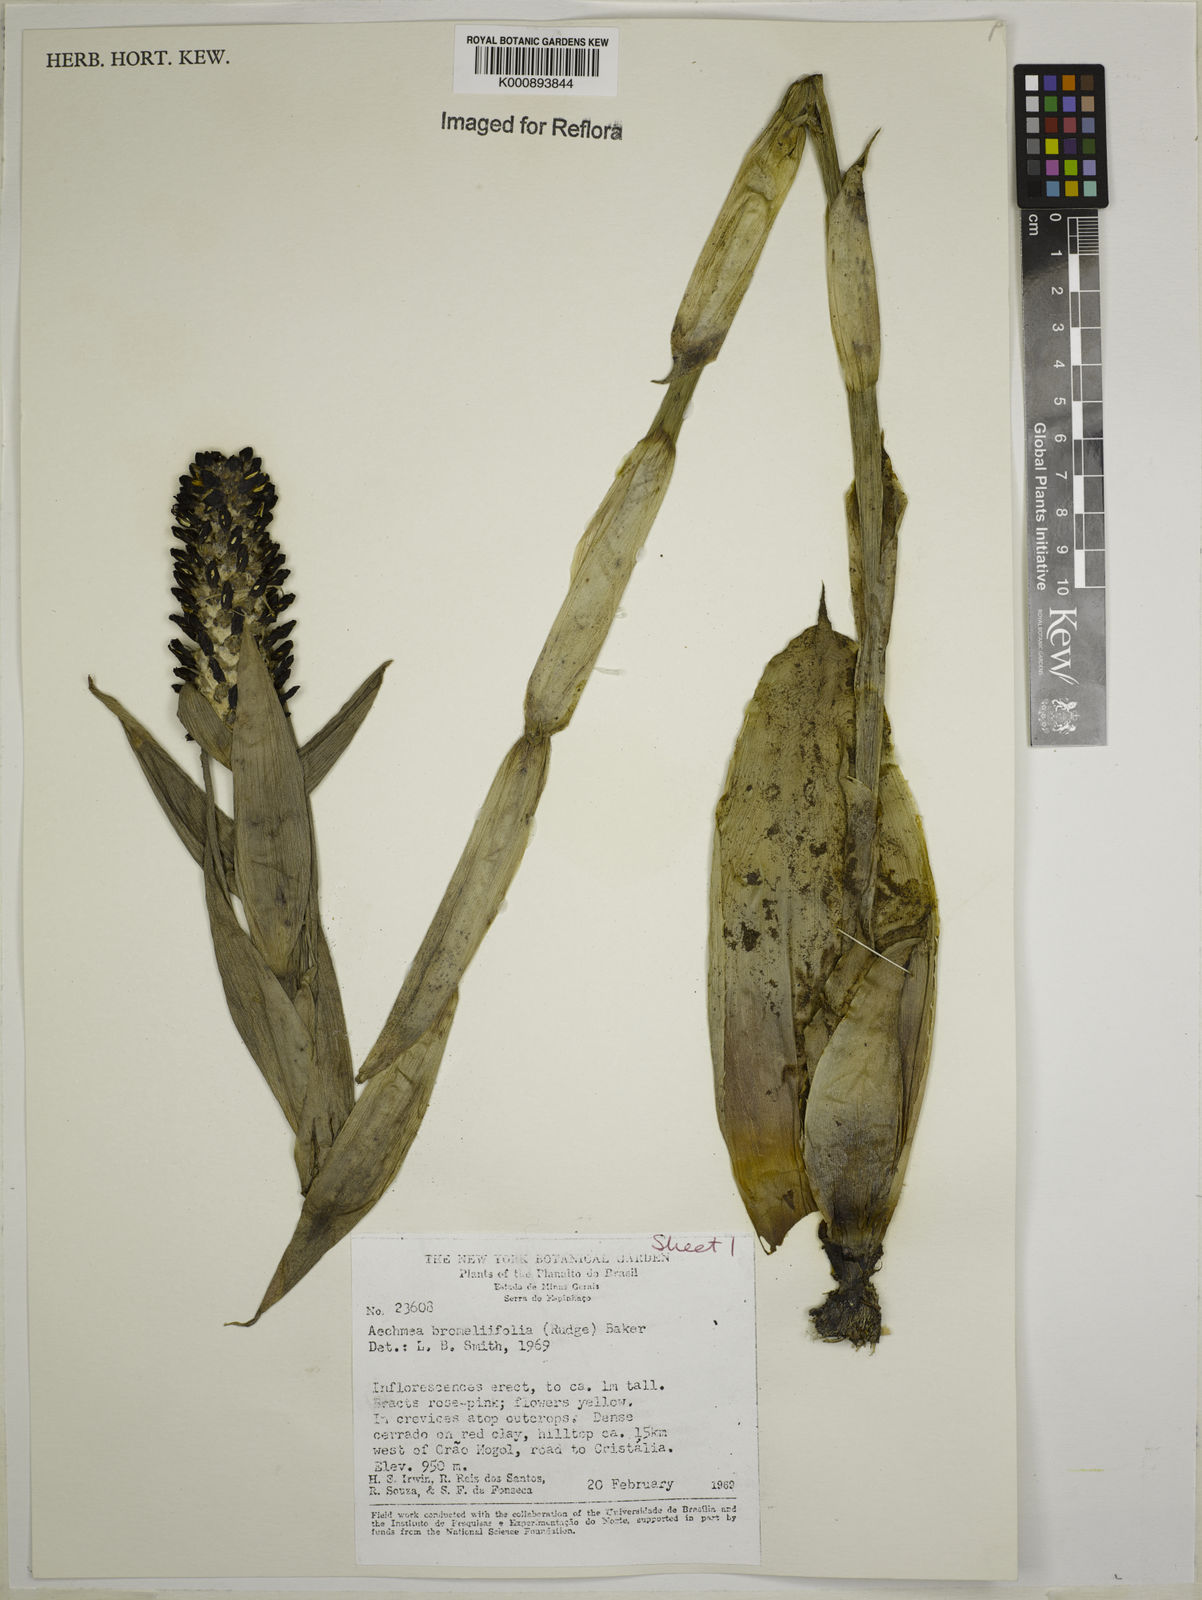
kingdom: Plantae
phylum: Tracheophyta
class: Liliopsida
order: Poales
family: Bromeliaceae
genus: Aechmea
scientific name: Aechmea
